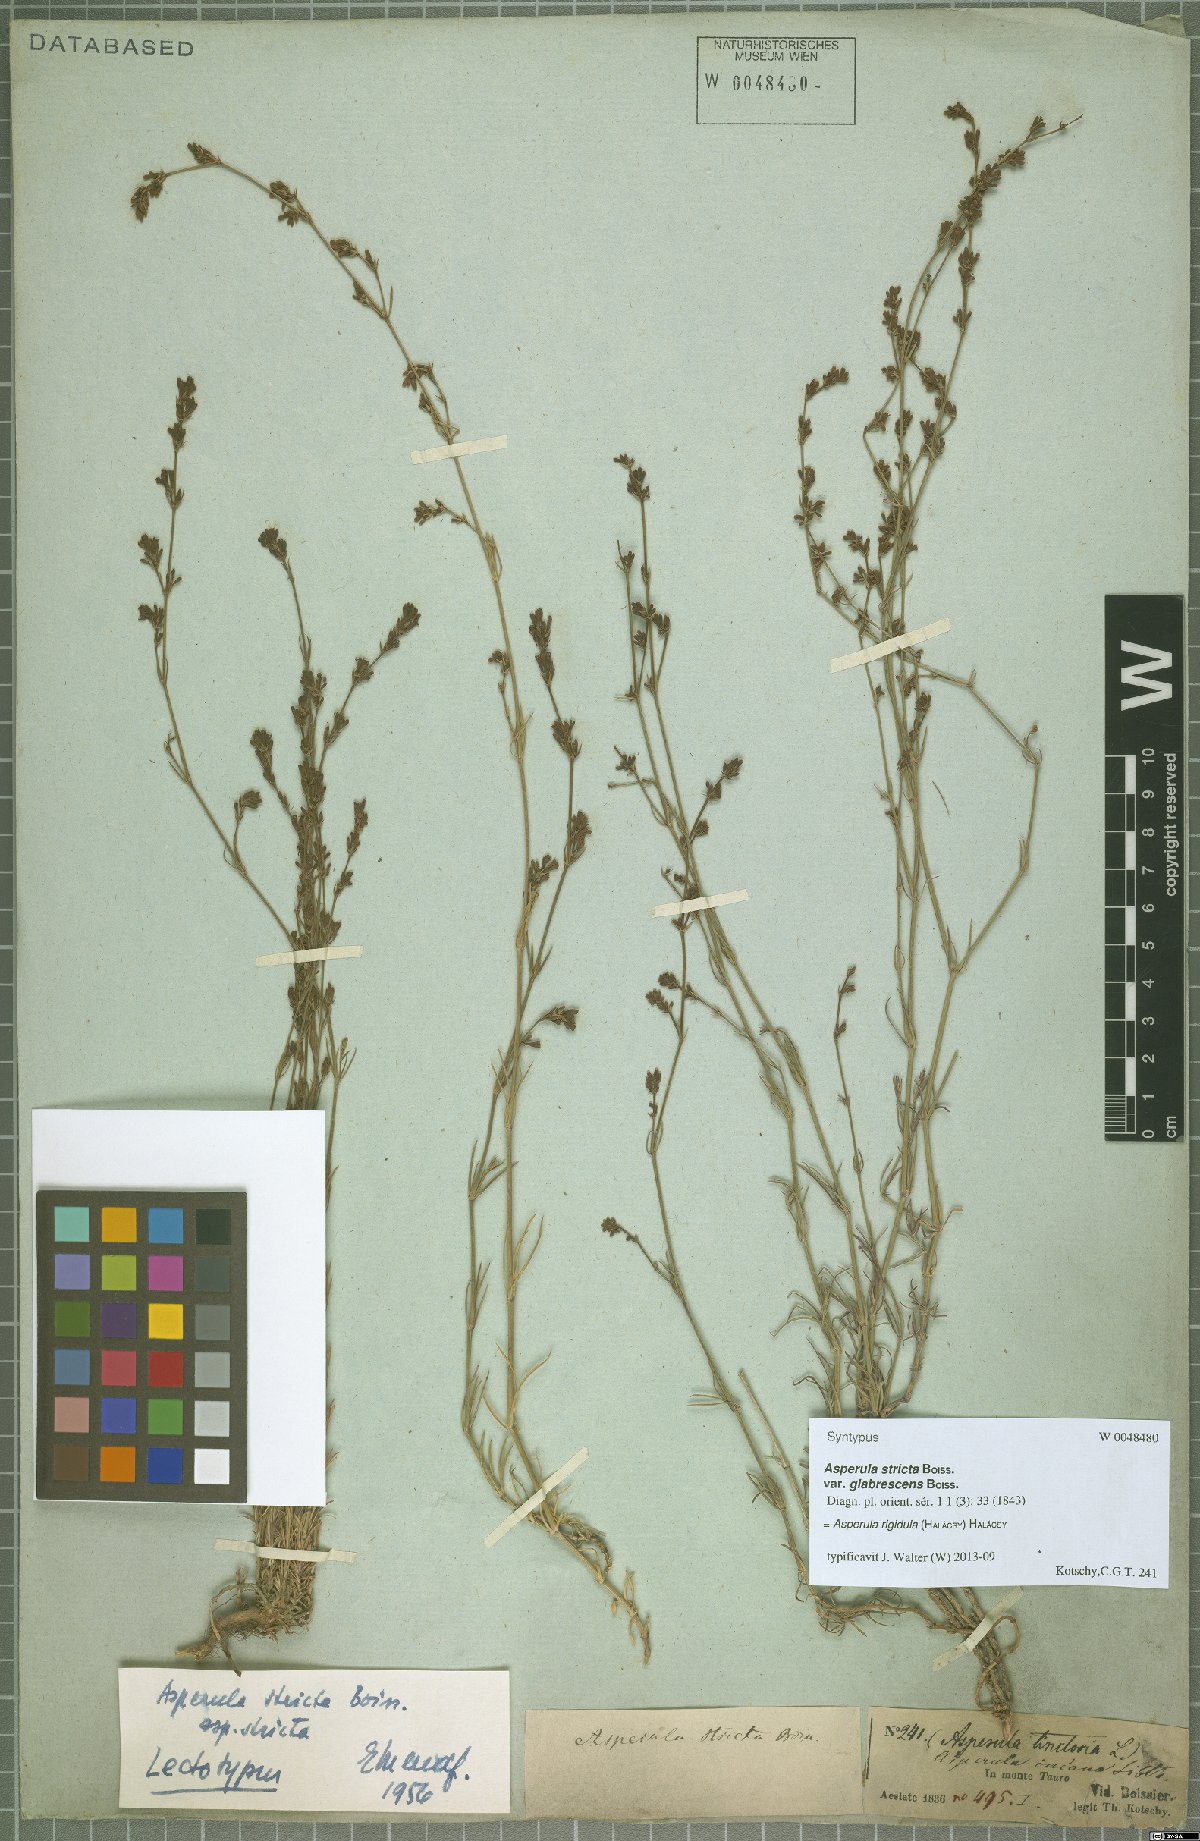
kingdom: Plantae
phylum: Tracheophyta
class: Magnoliopsida
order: Gentianales
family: Rubiaceae
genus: Cynanchica
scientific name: Cynanchica rigidula
